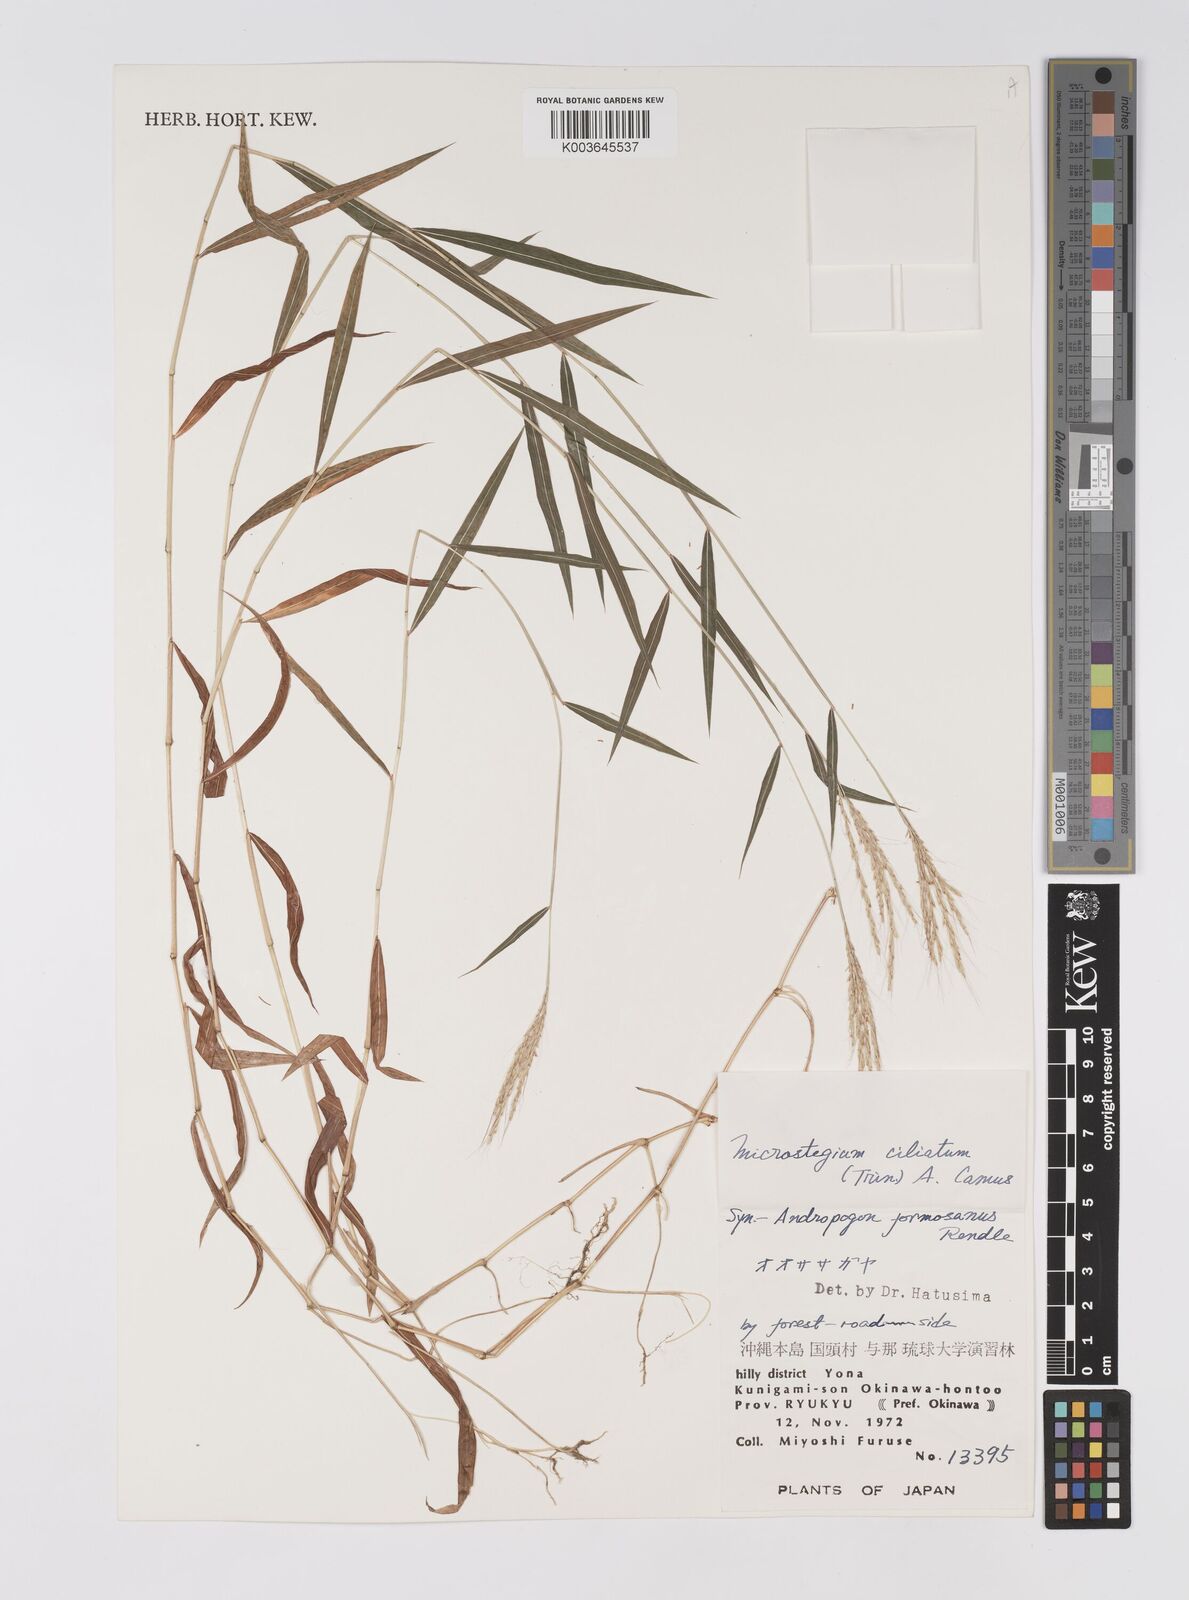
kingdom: Plantae
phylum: Tracheophyta
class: Liliopsida
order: Poales
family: Poaceae
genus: Microstegium
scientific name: Microstegium fasciculatum
